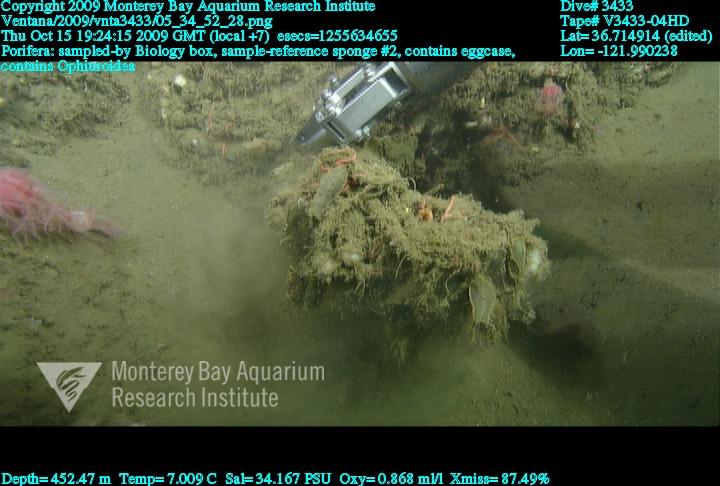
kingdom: Animalia
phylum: Porifera
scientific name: Porifera
